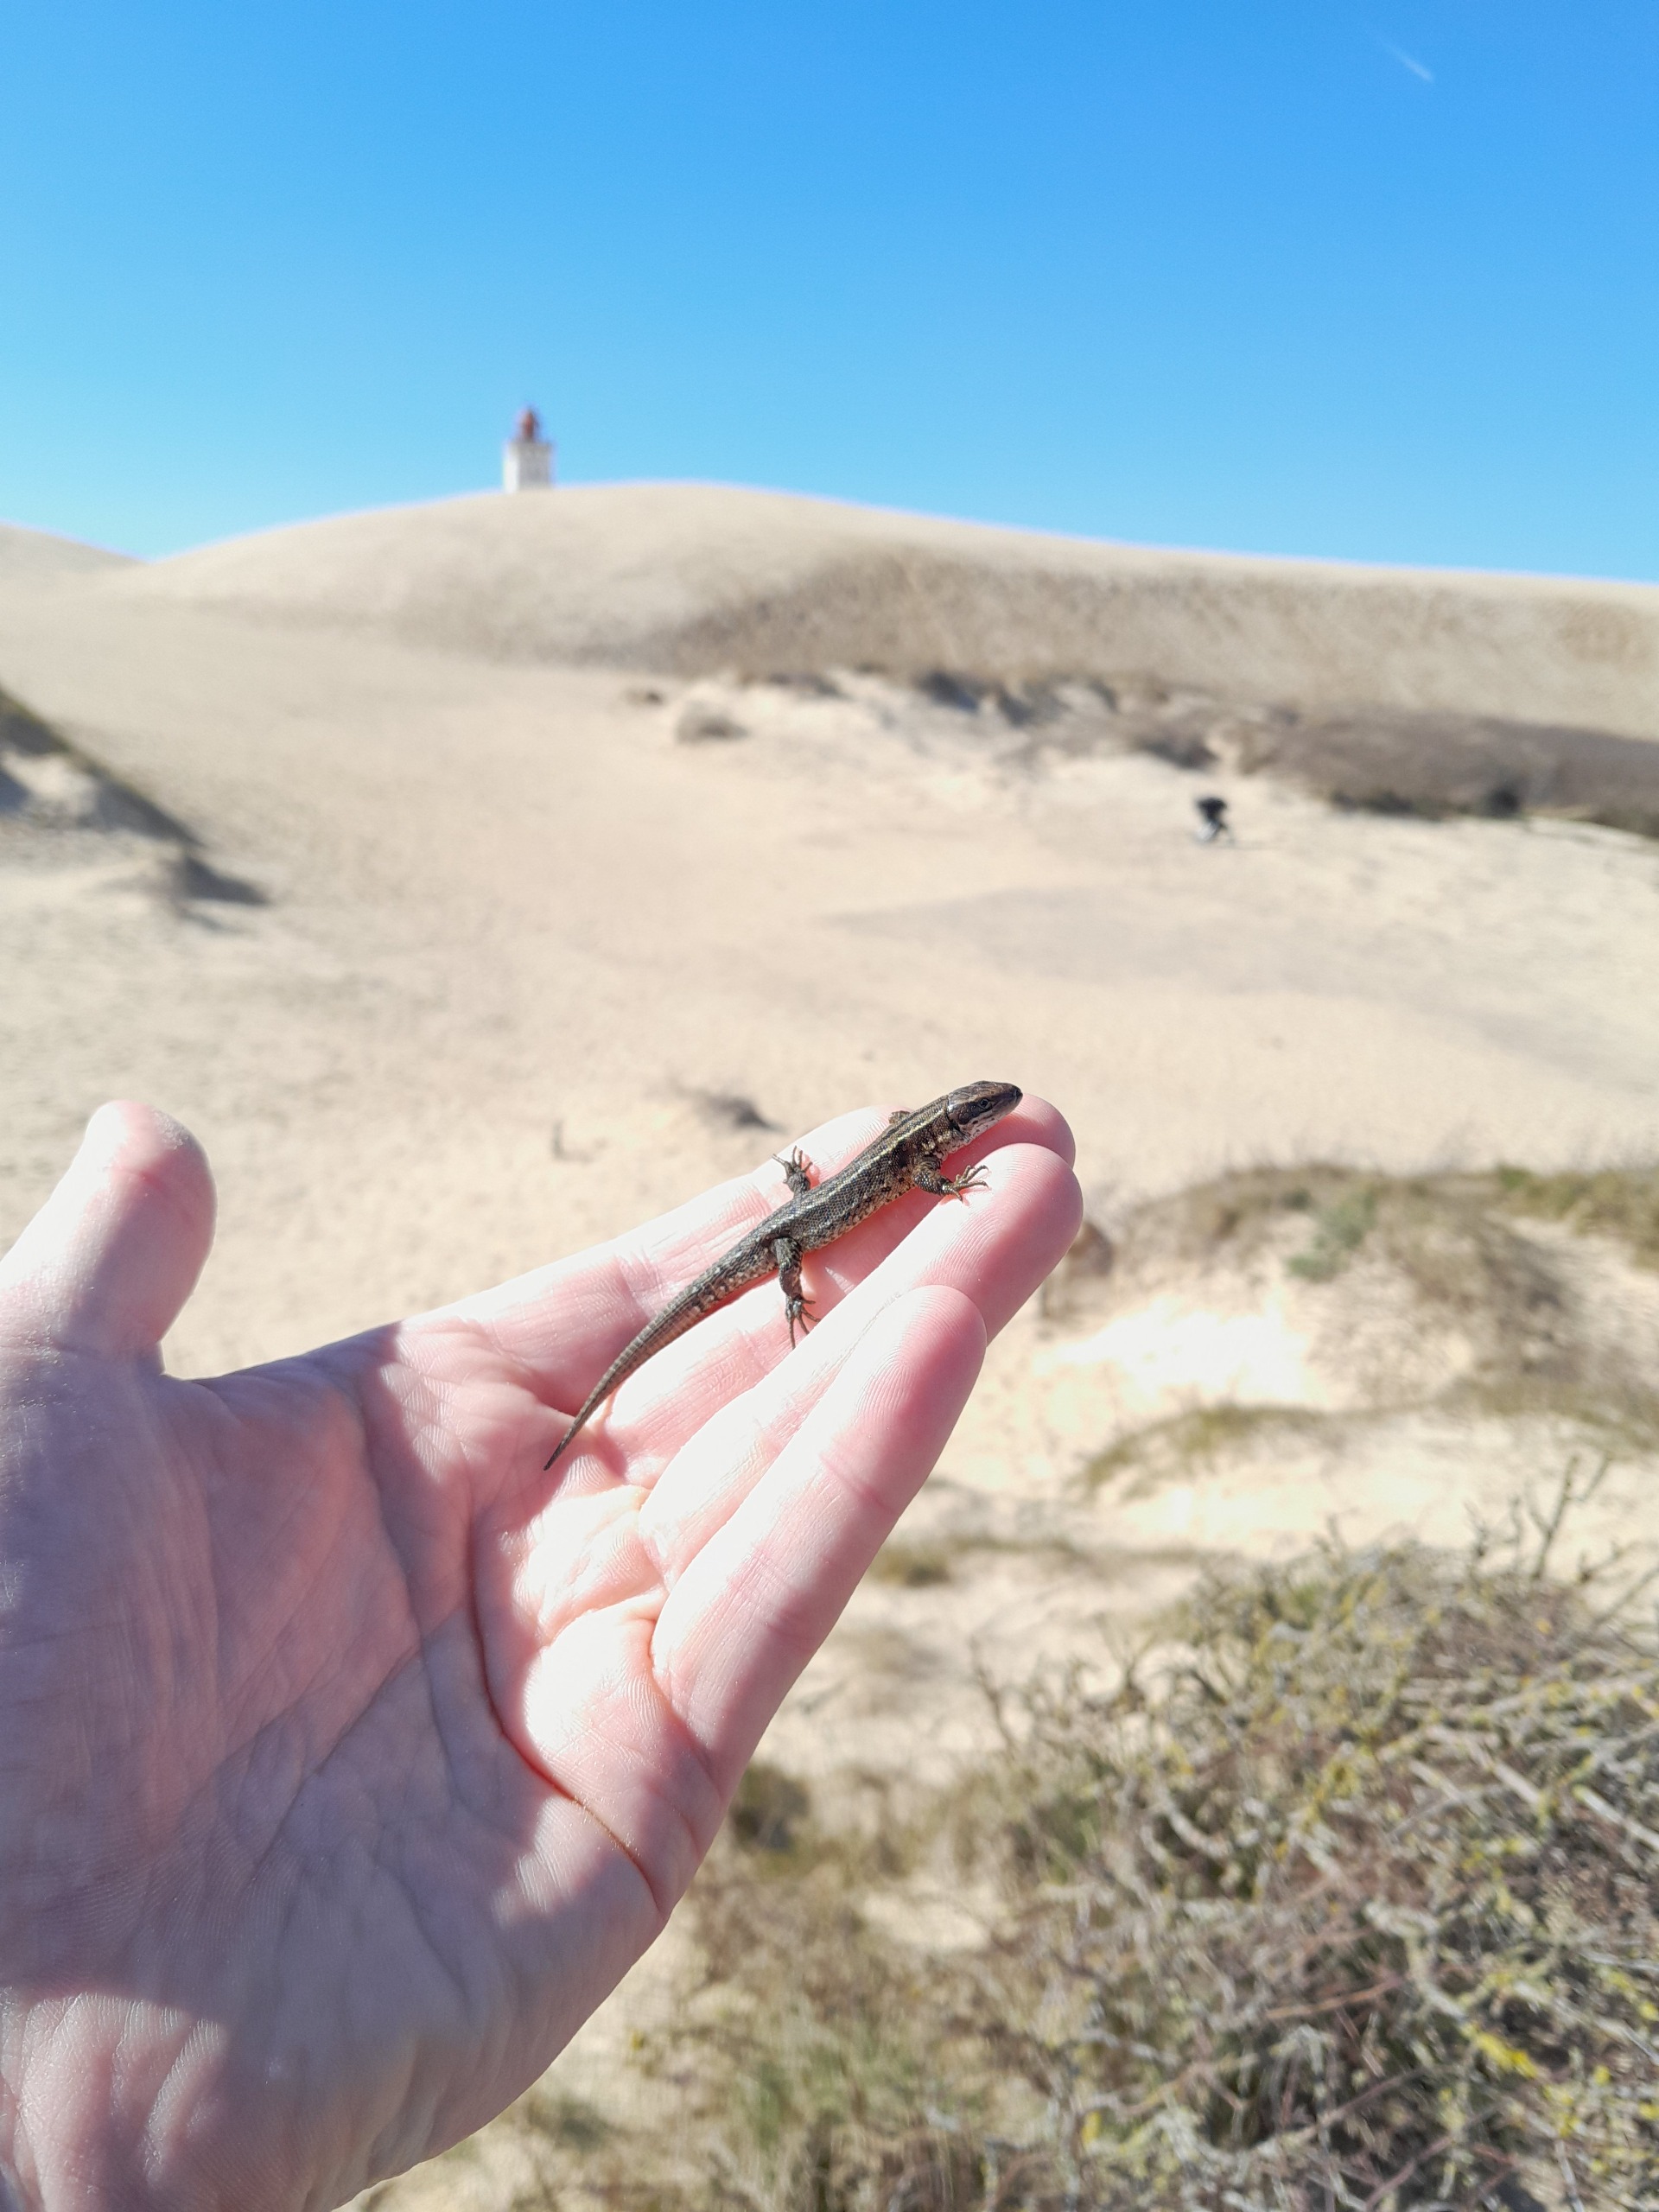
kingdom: Animalia
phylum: Chordata
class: Squamata
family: Lacertidae
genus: Zootoca
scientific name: Zootoca vivipara
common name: Skovfirben
